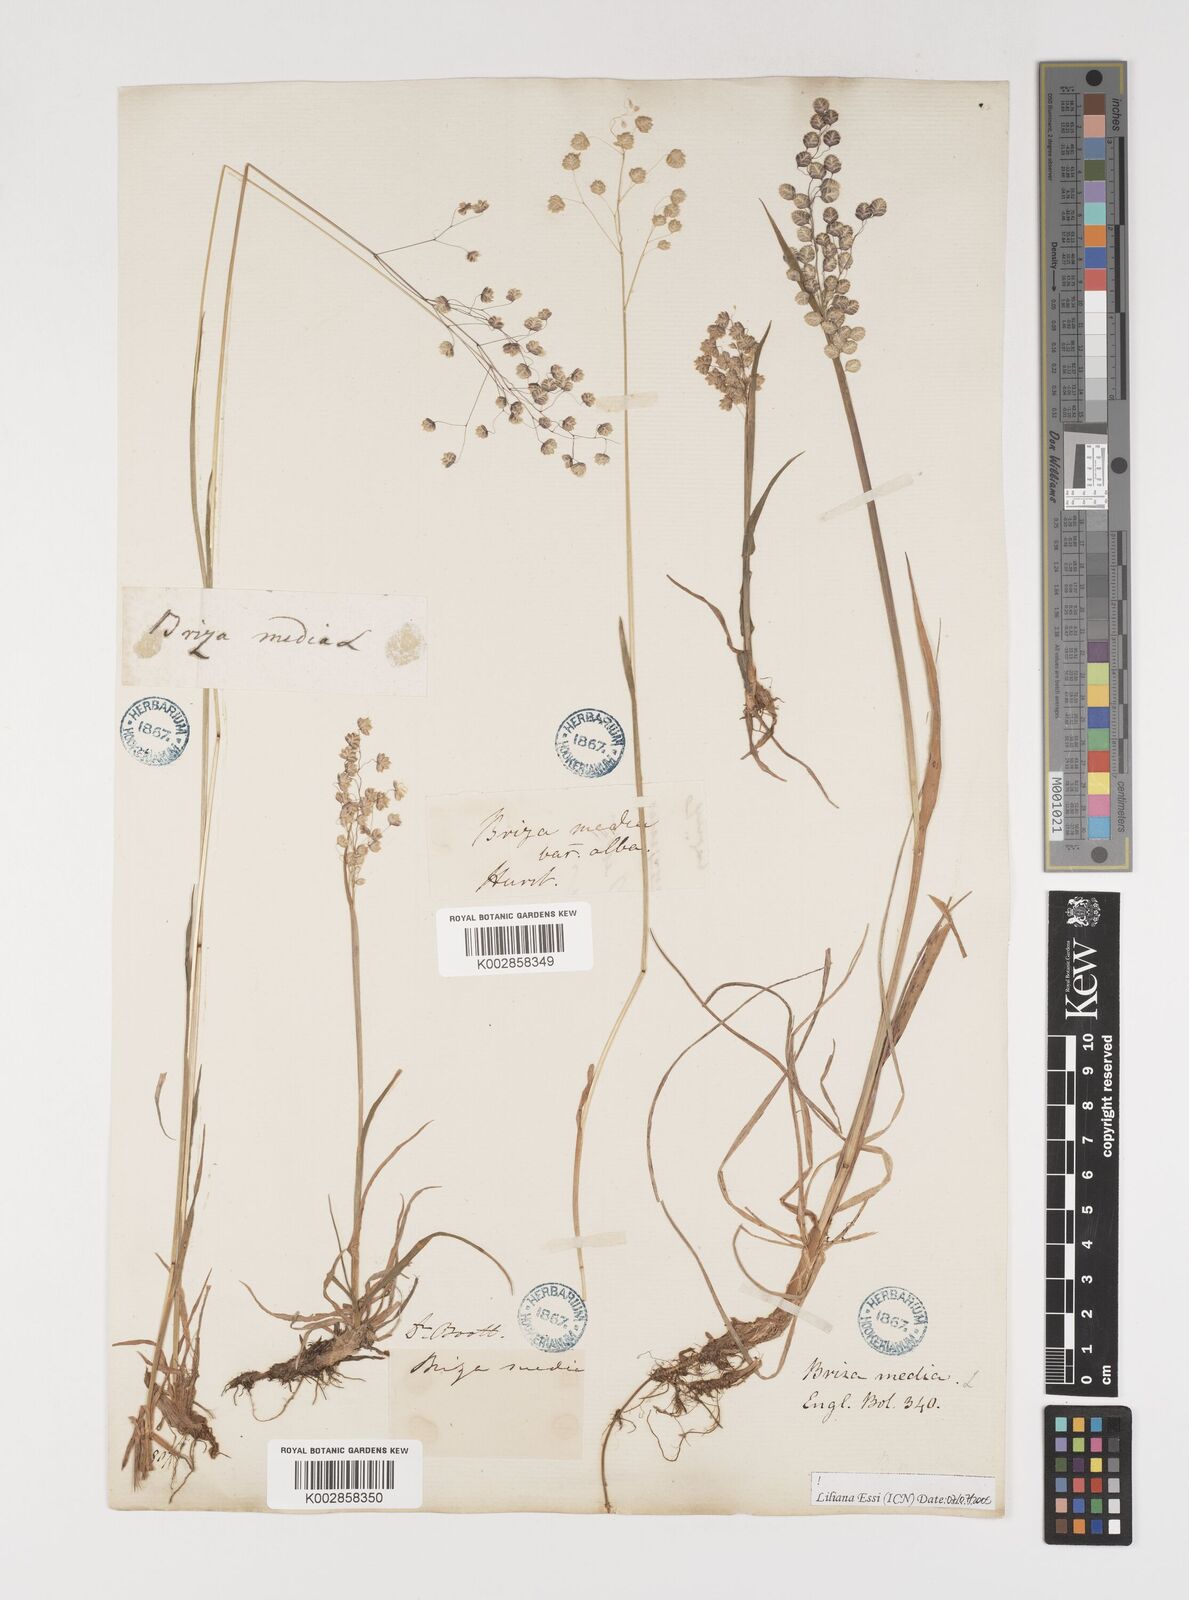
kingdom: Plantae
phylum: Tracheophyta
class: Liliopsida
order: Poales
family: Poaceae
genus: Briza
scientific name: Briza media
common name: Quaking grass
